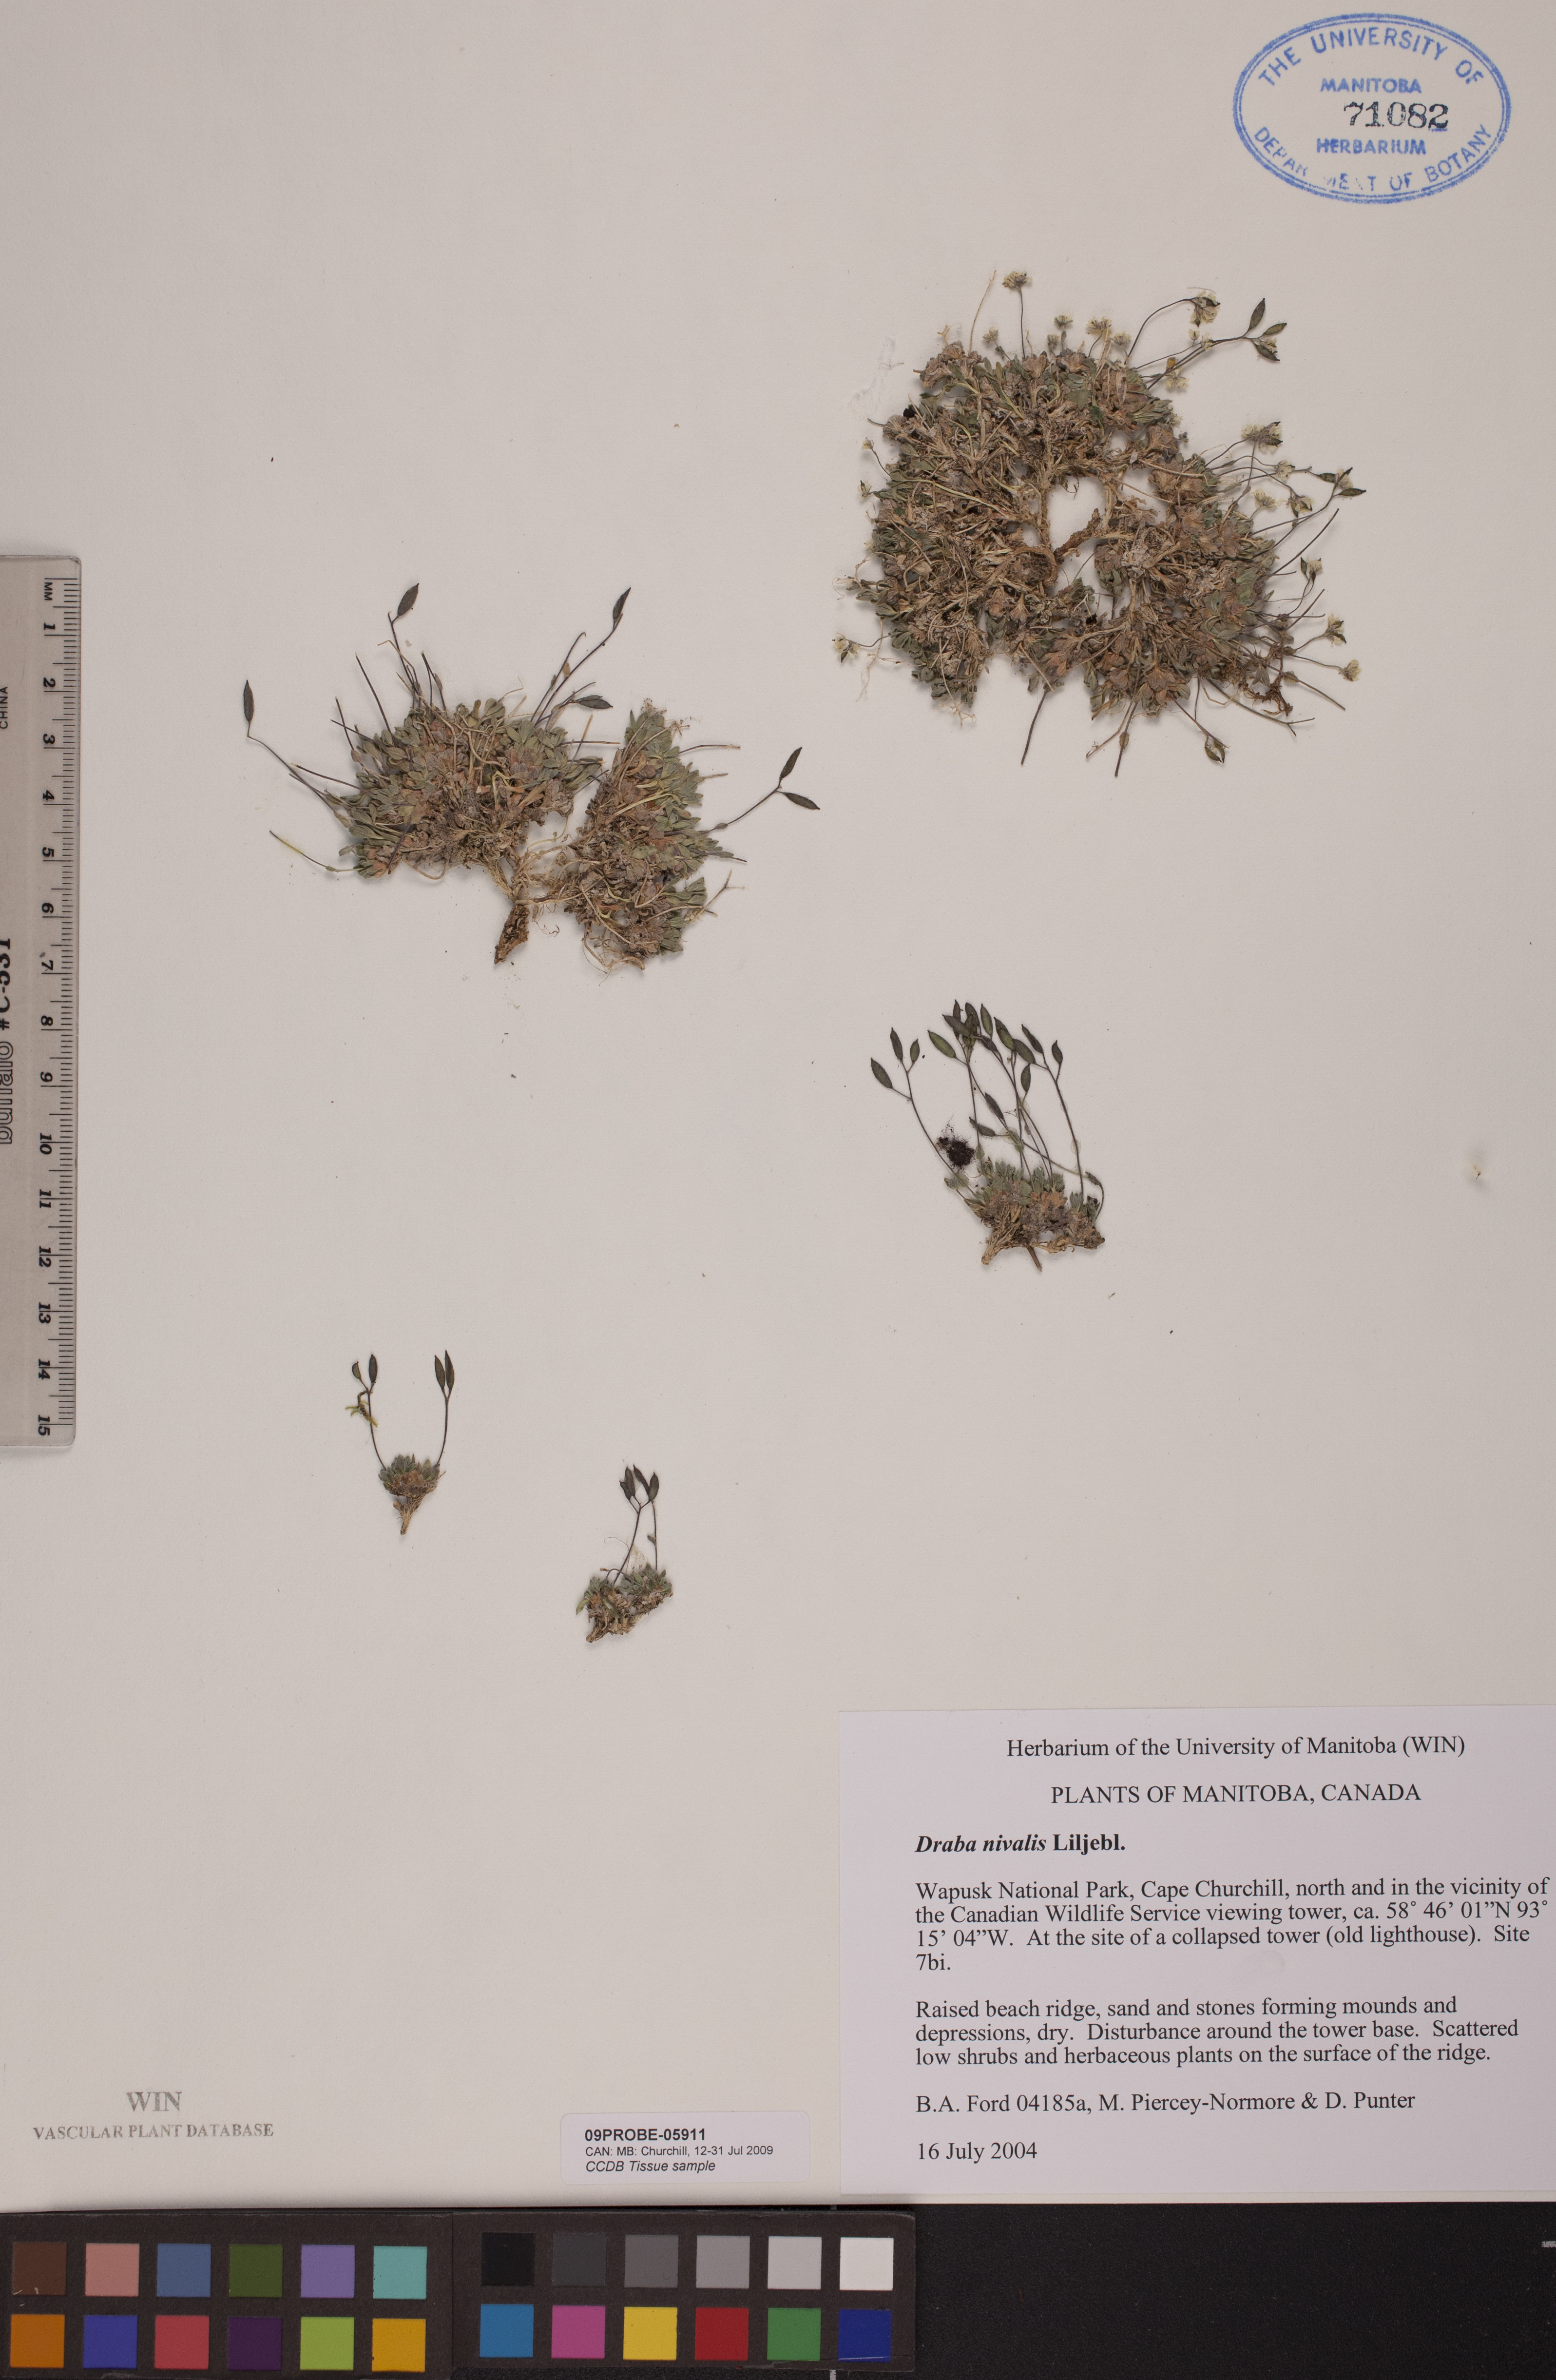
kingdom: Plantae
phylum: Tracheophyta
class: Magnoliopsida
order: Brassicales
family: Brassicaceae
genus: Draba
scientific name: Draba nivalis
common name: Snow draba
